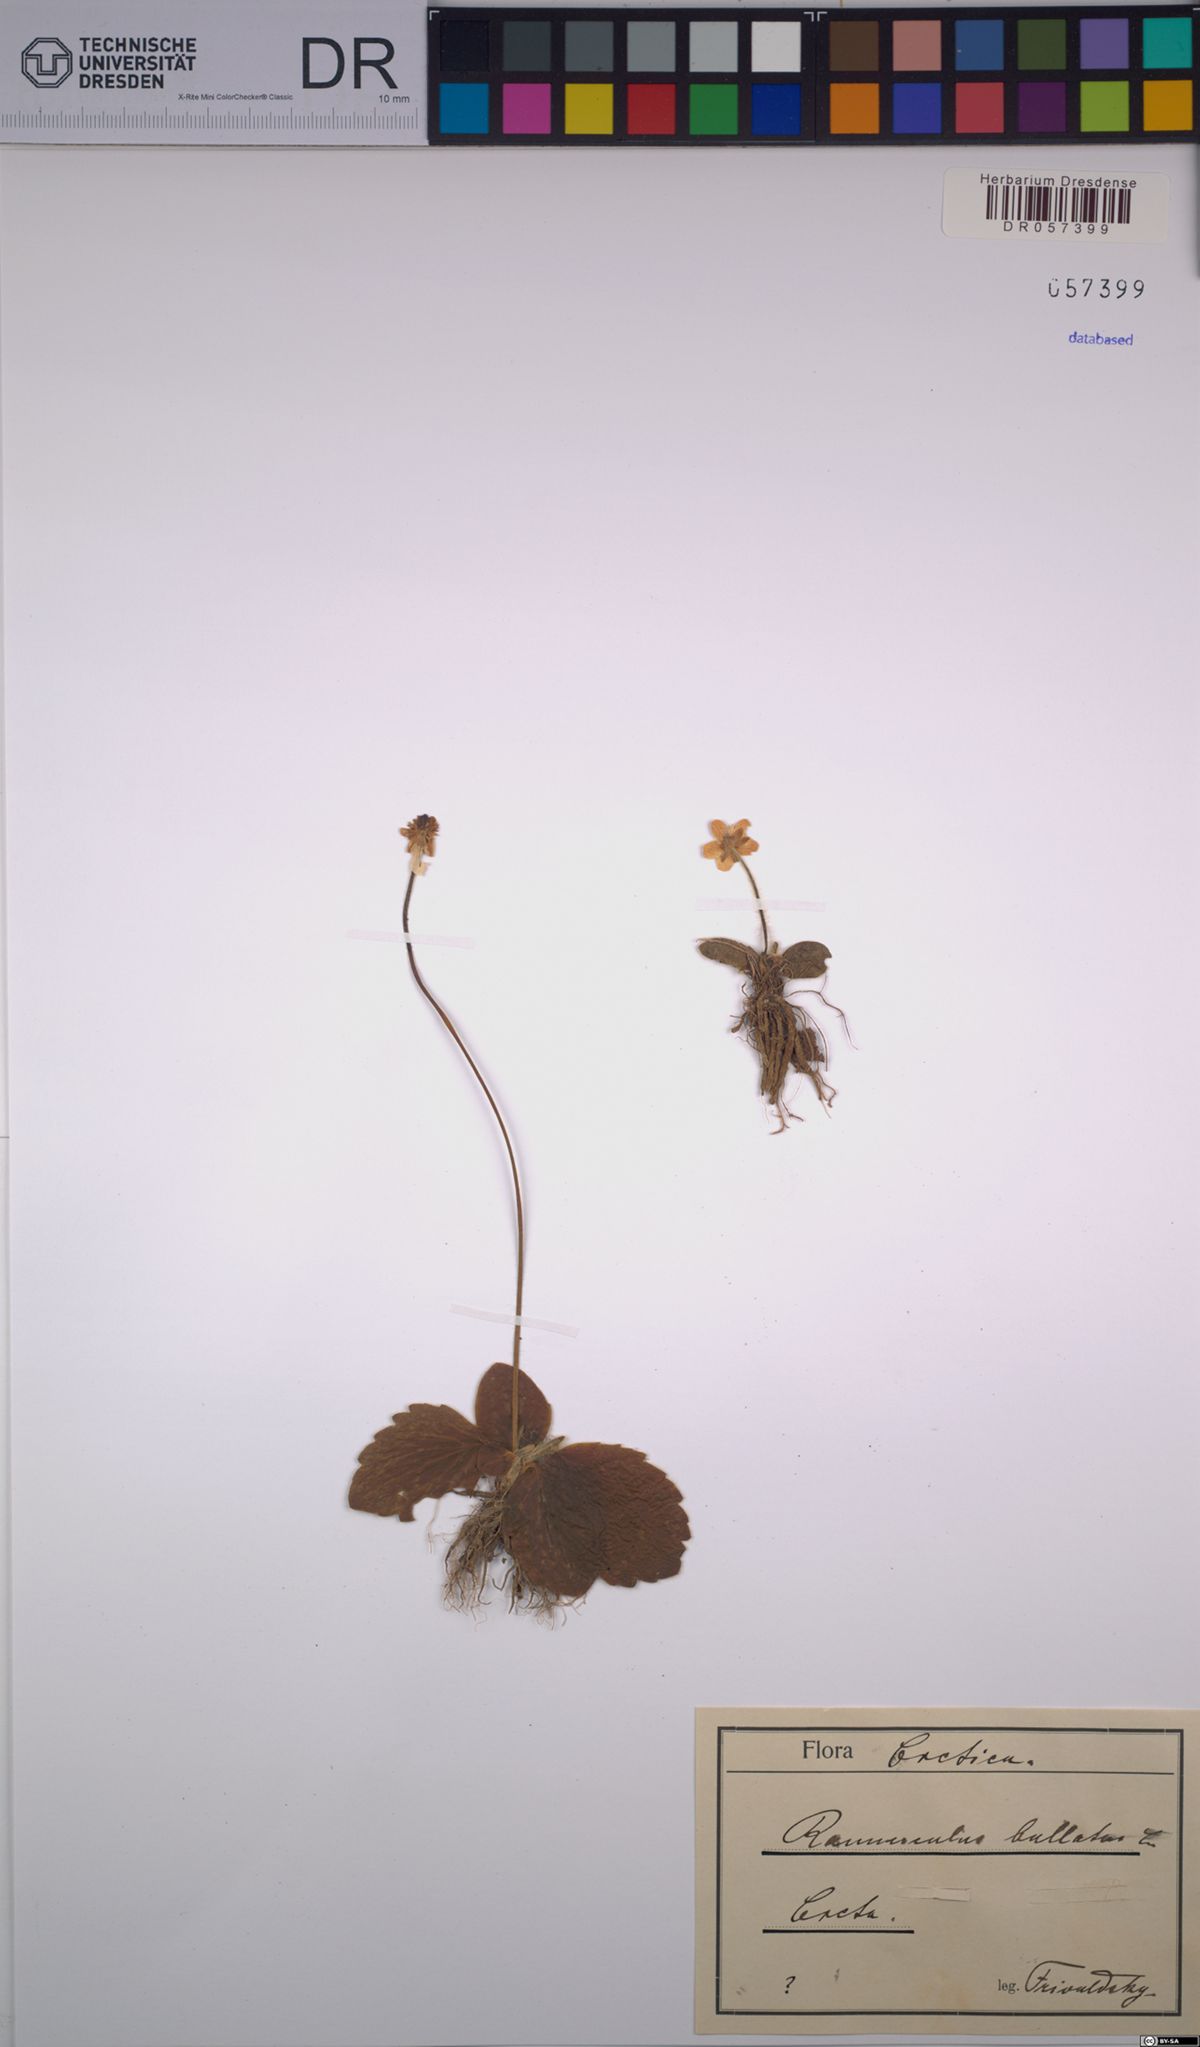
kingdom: Plantae
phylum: Tracheophyta
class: Magnoliopsida
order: Ranunculales
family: Ranunculaceae
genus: Ranunculus
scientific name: Ranunculus bullatus
